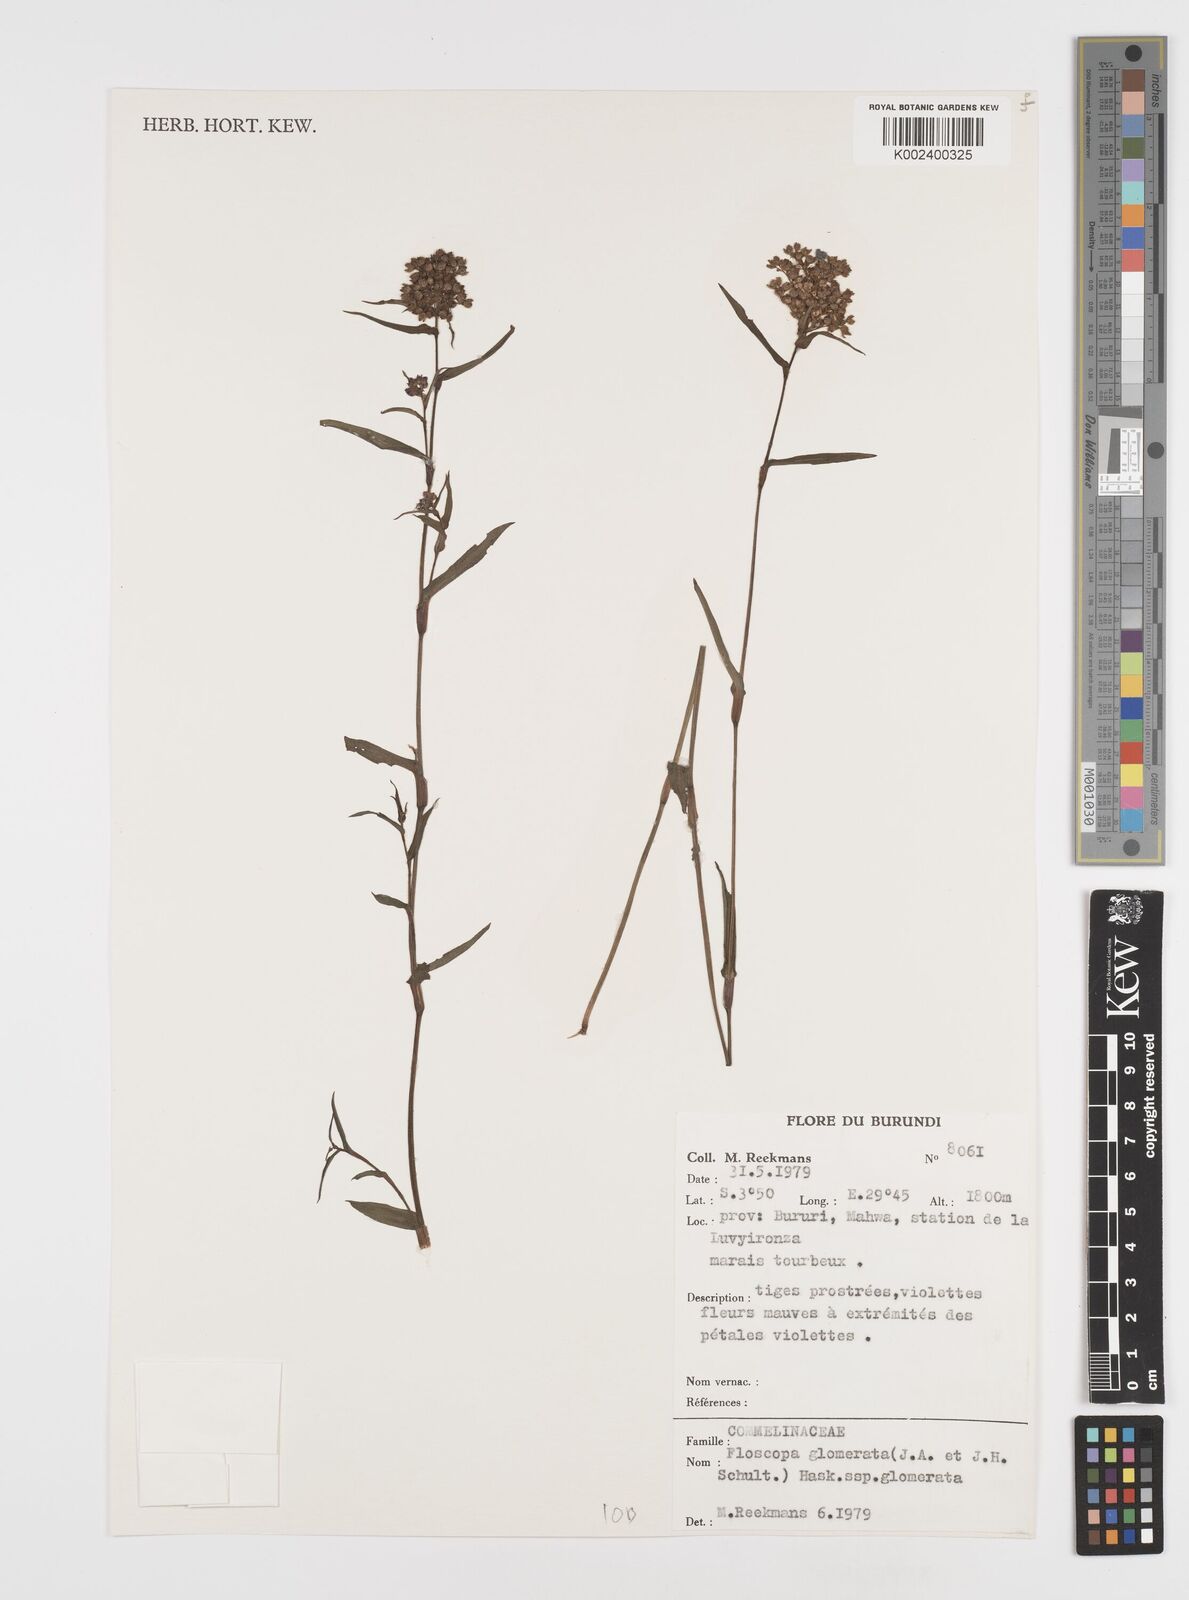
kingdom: Plantae
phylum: Tracheophyta
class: Liliopsida
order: Commelinales
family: Commelinaceae
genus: Floscopa
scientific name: Floscopa glomerata
